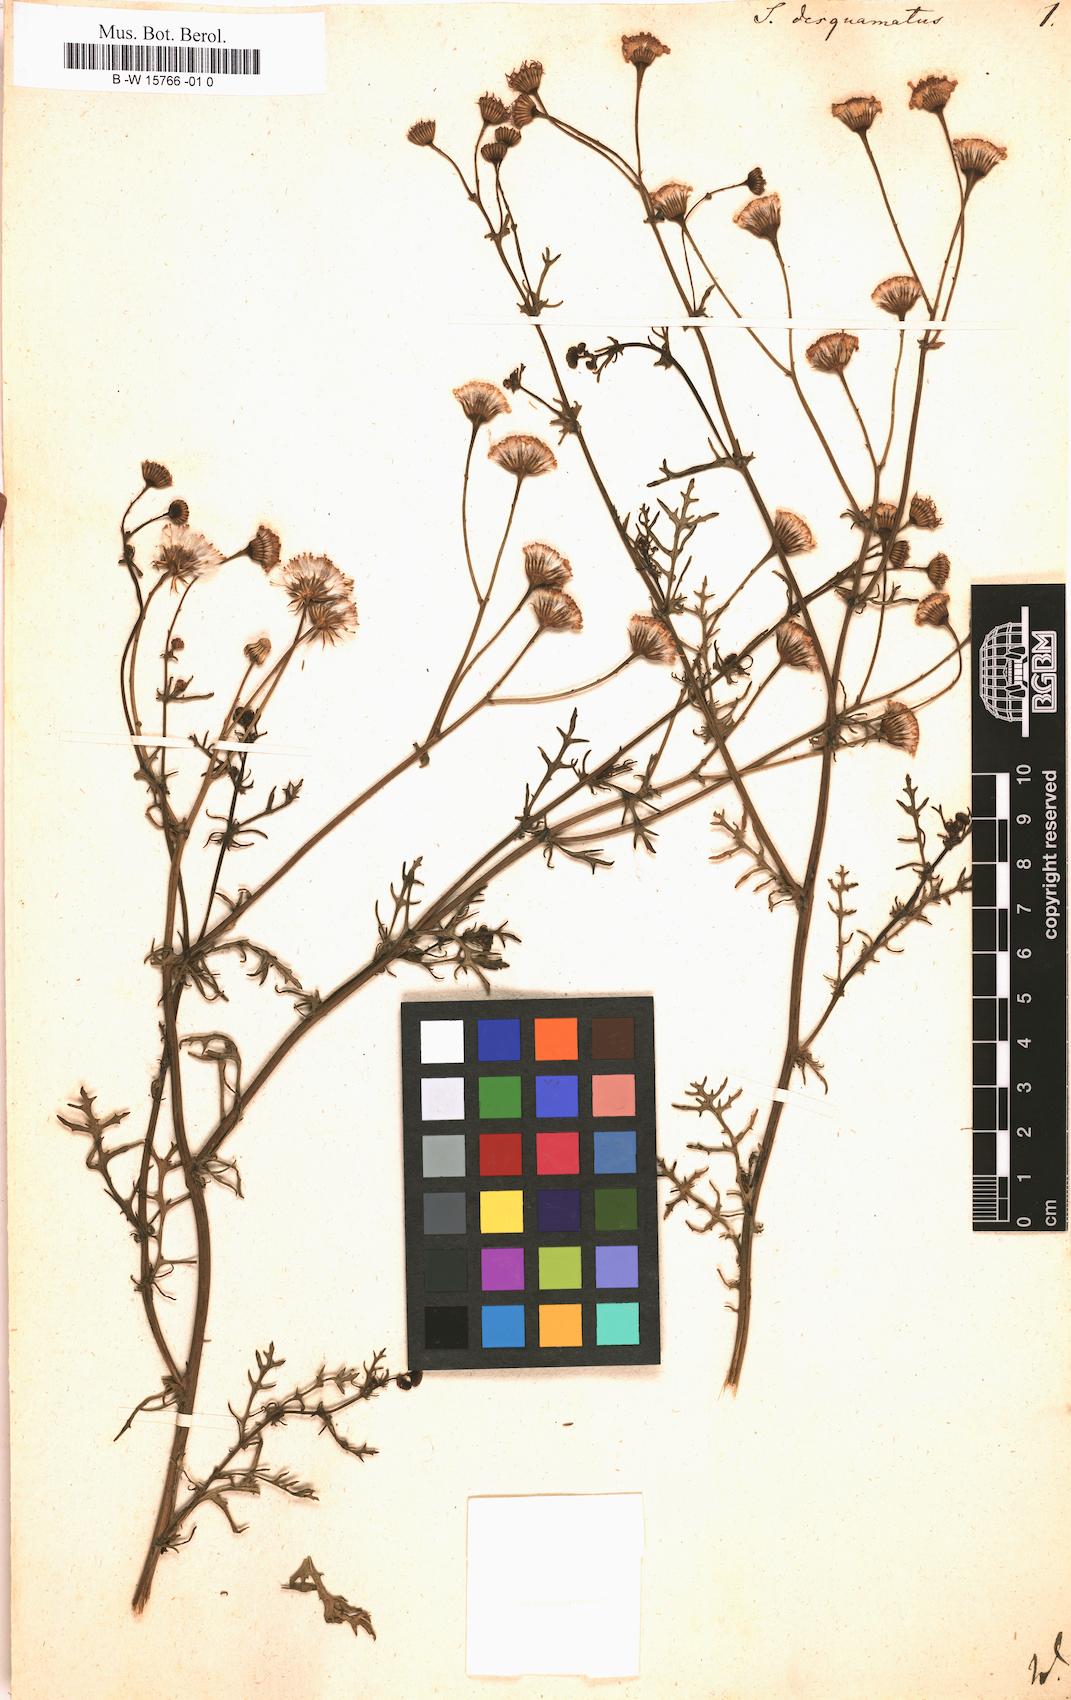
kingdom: Plantae
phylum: Tracheophyta
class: Magnoliopsida
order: Asterales
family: Asteraceae
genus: Senecio
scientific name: Senecio gallicus
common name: French groundsel
